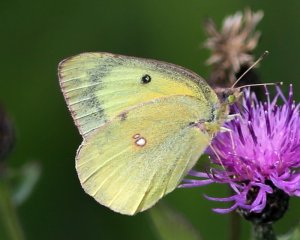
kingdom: Animalia
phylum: Arthropoda
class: Insecta
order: Lepidoptera
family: Pieridae
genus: Colias
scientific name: Colias eurytheme
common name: Orange Sulphur
